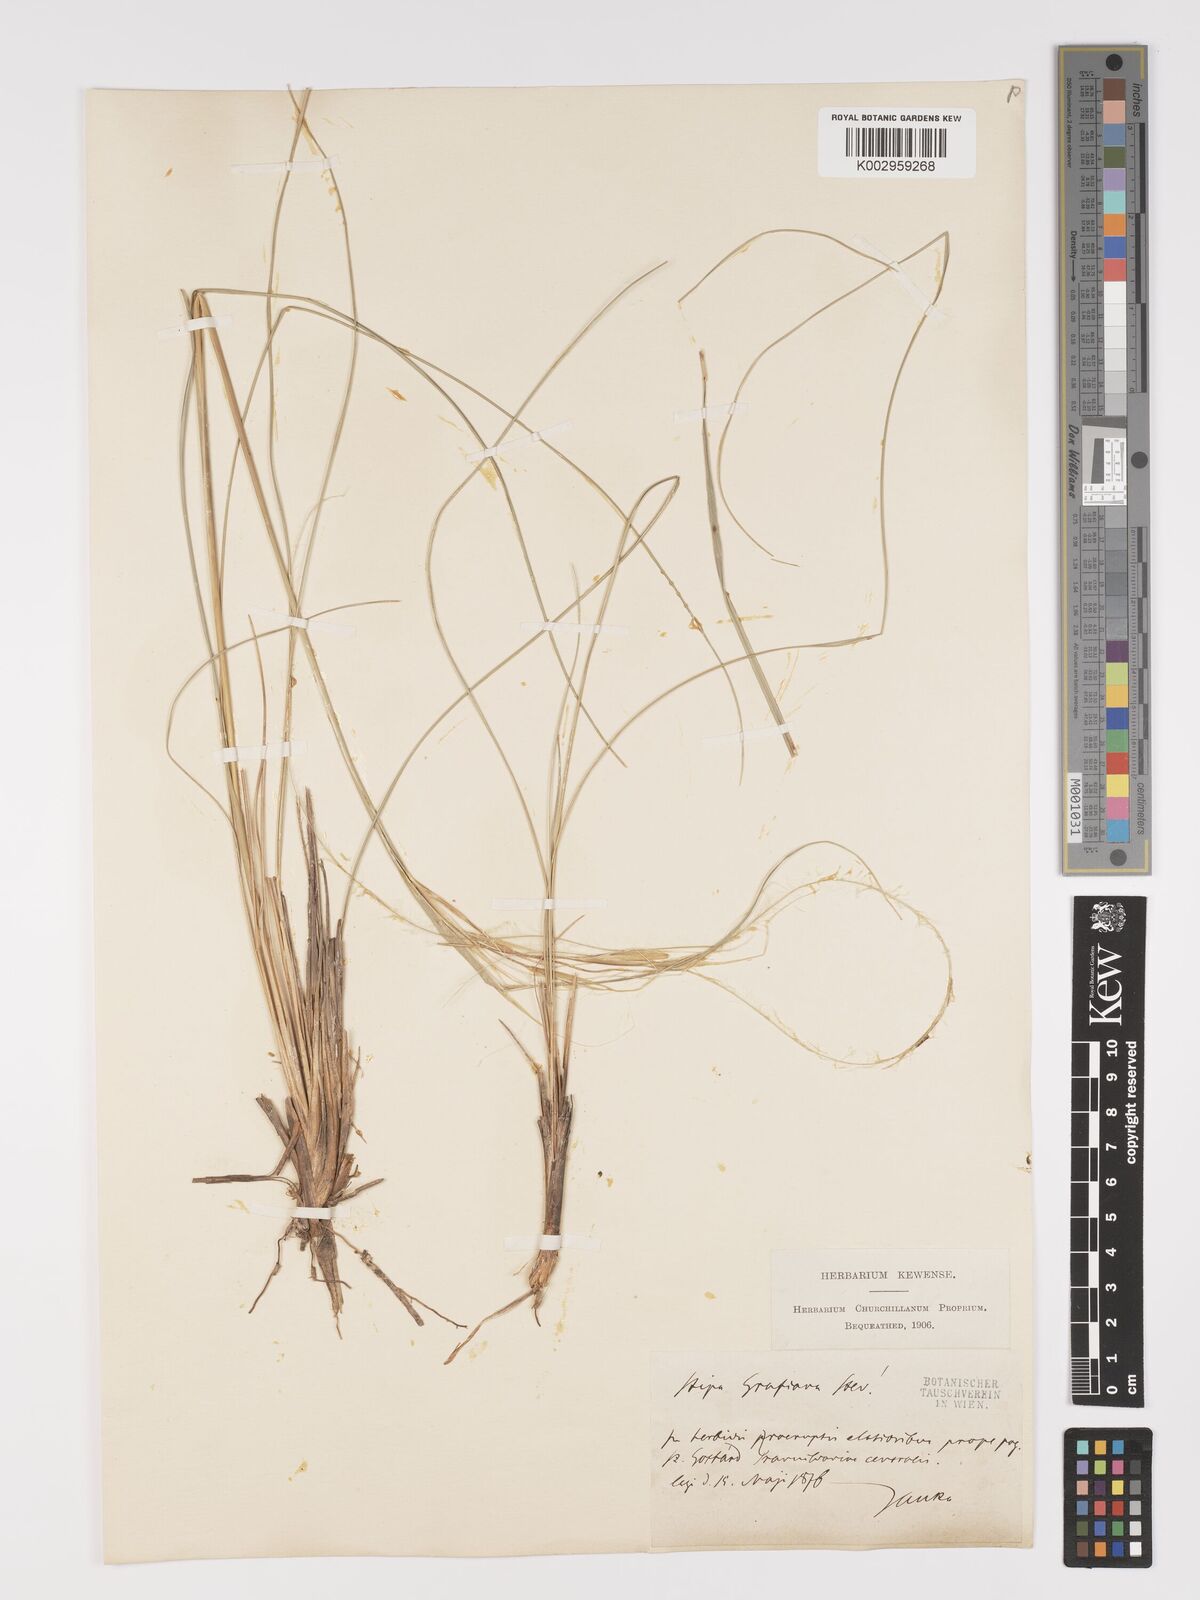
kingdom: Plantae
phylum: Tracheophyta
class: Liliopsida
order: Poales
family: Poaceae
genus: Stipa
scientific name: Stipa pulcherrima
